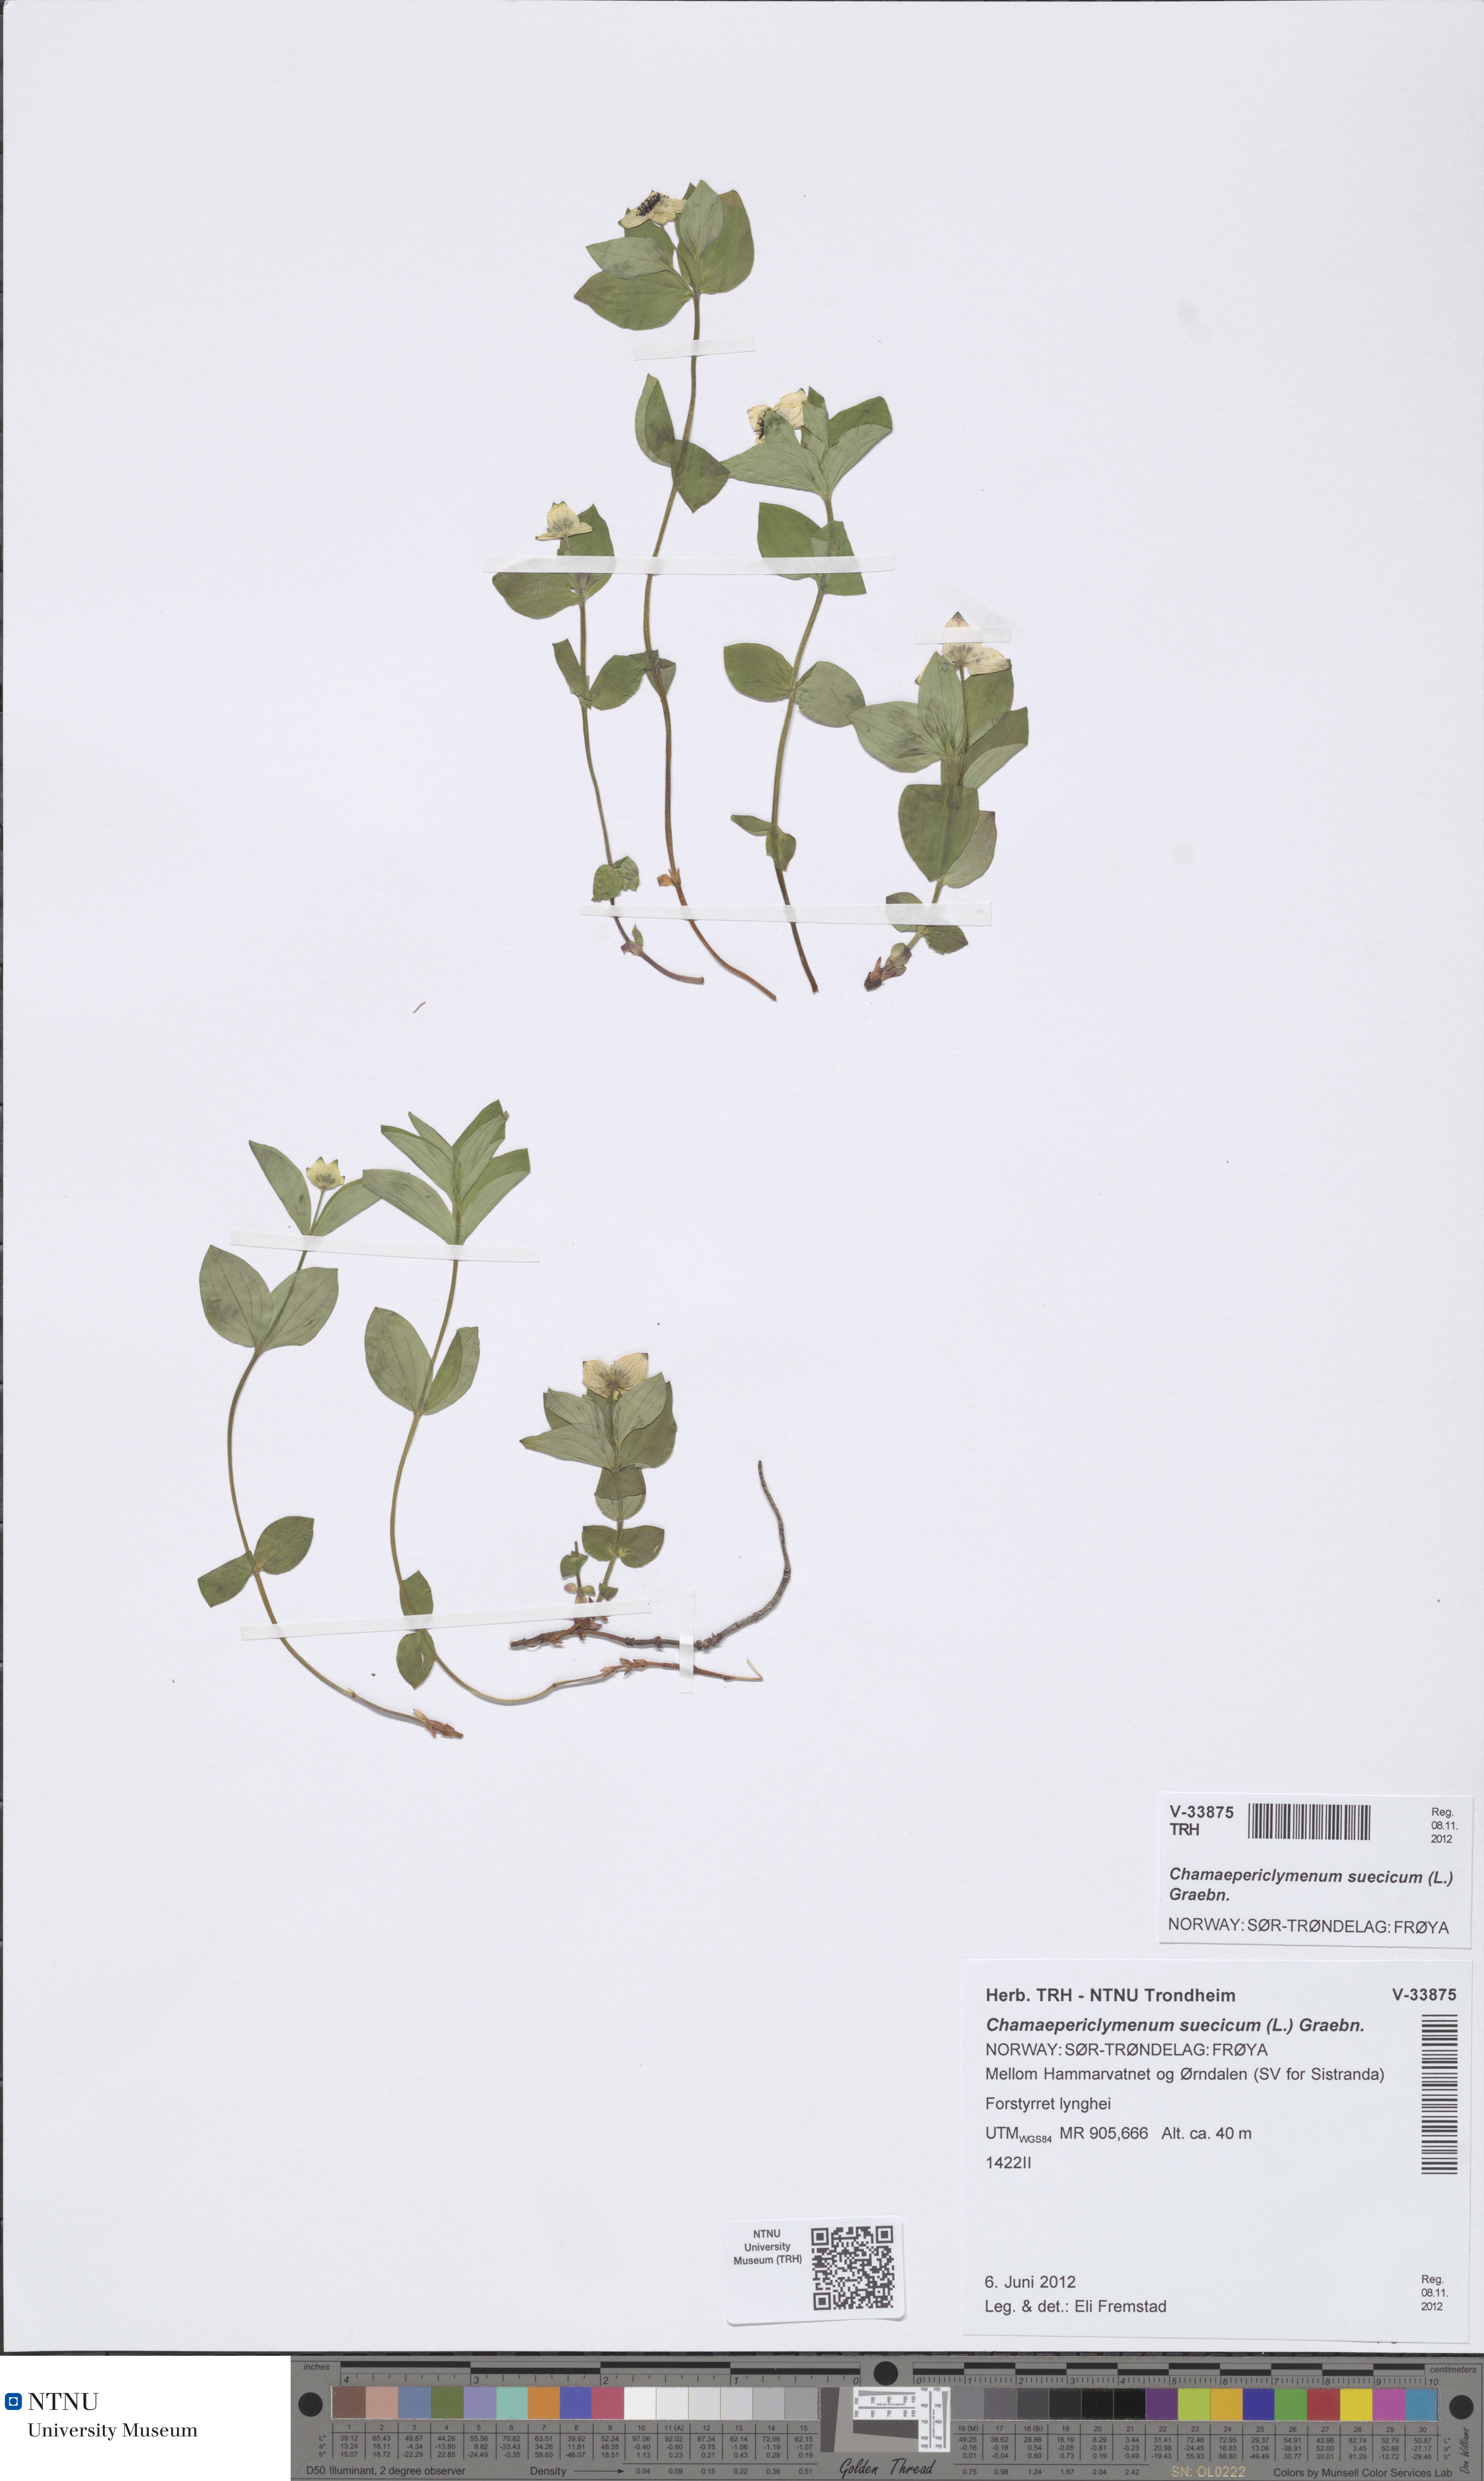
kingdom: Plantae
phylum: Tracheophyta
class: Magnoliopsida
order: Cornales
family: Cornaceae
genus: Cornus
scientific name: Cornus suecica
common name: Dwarf cornel
